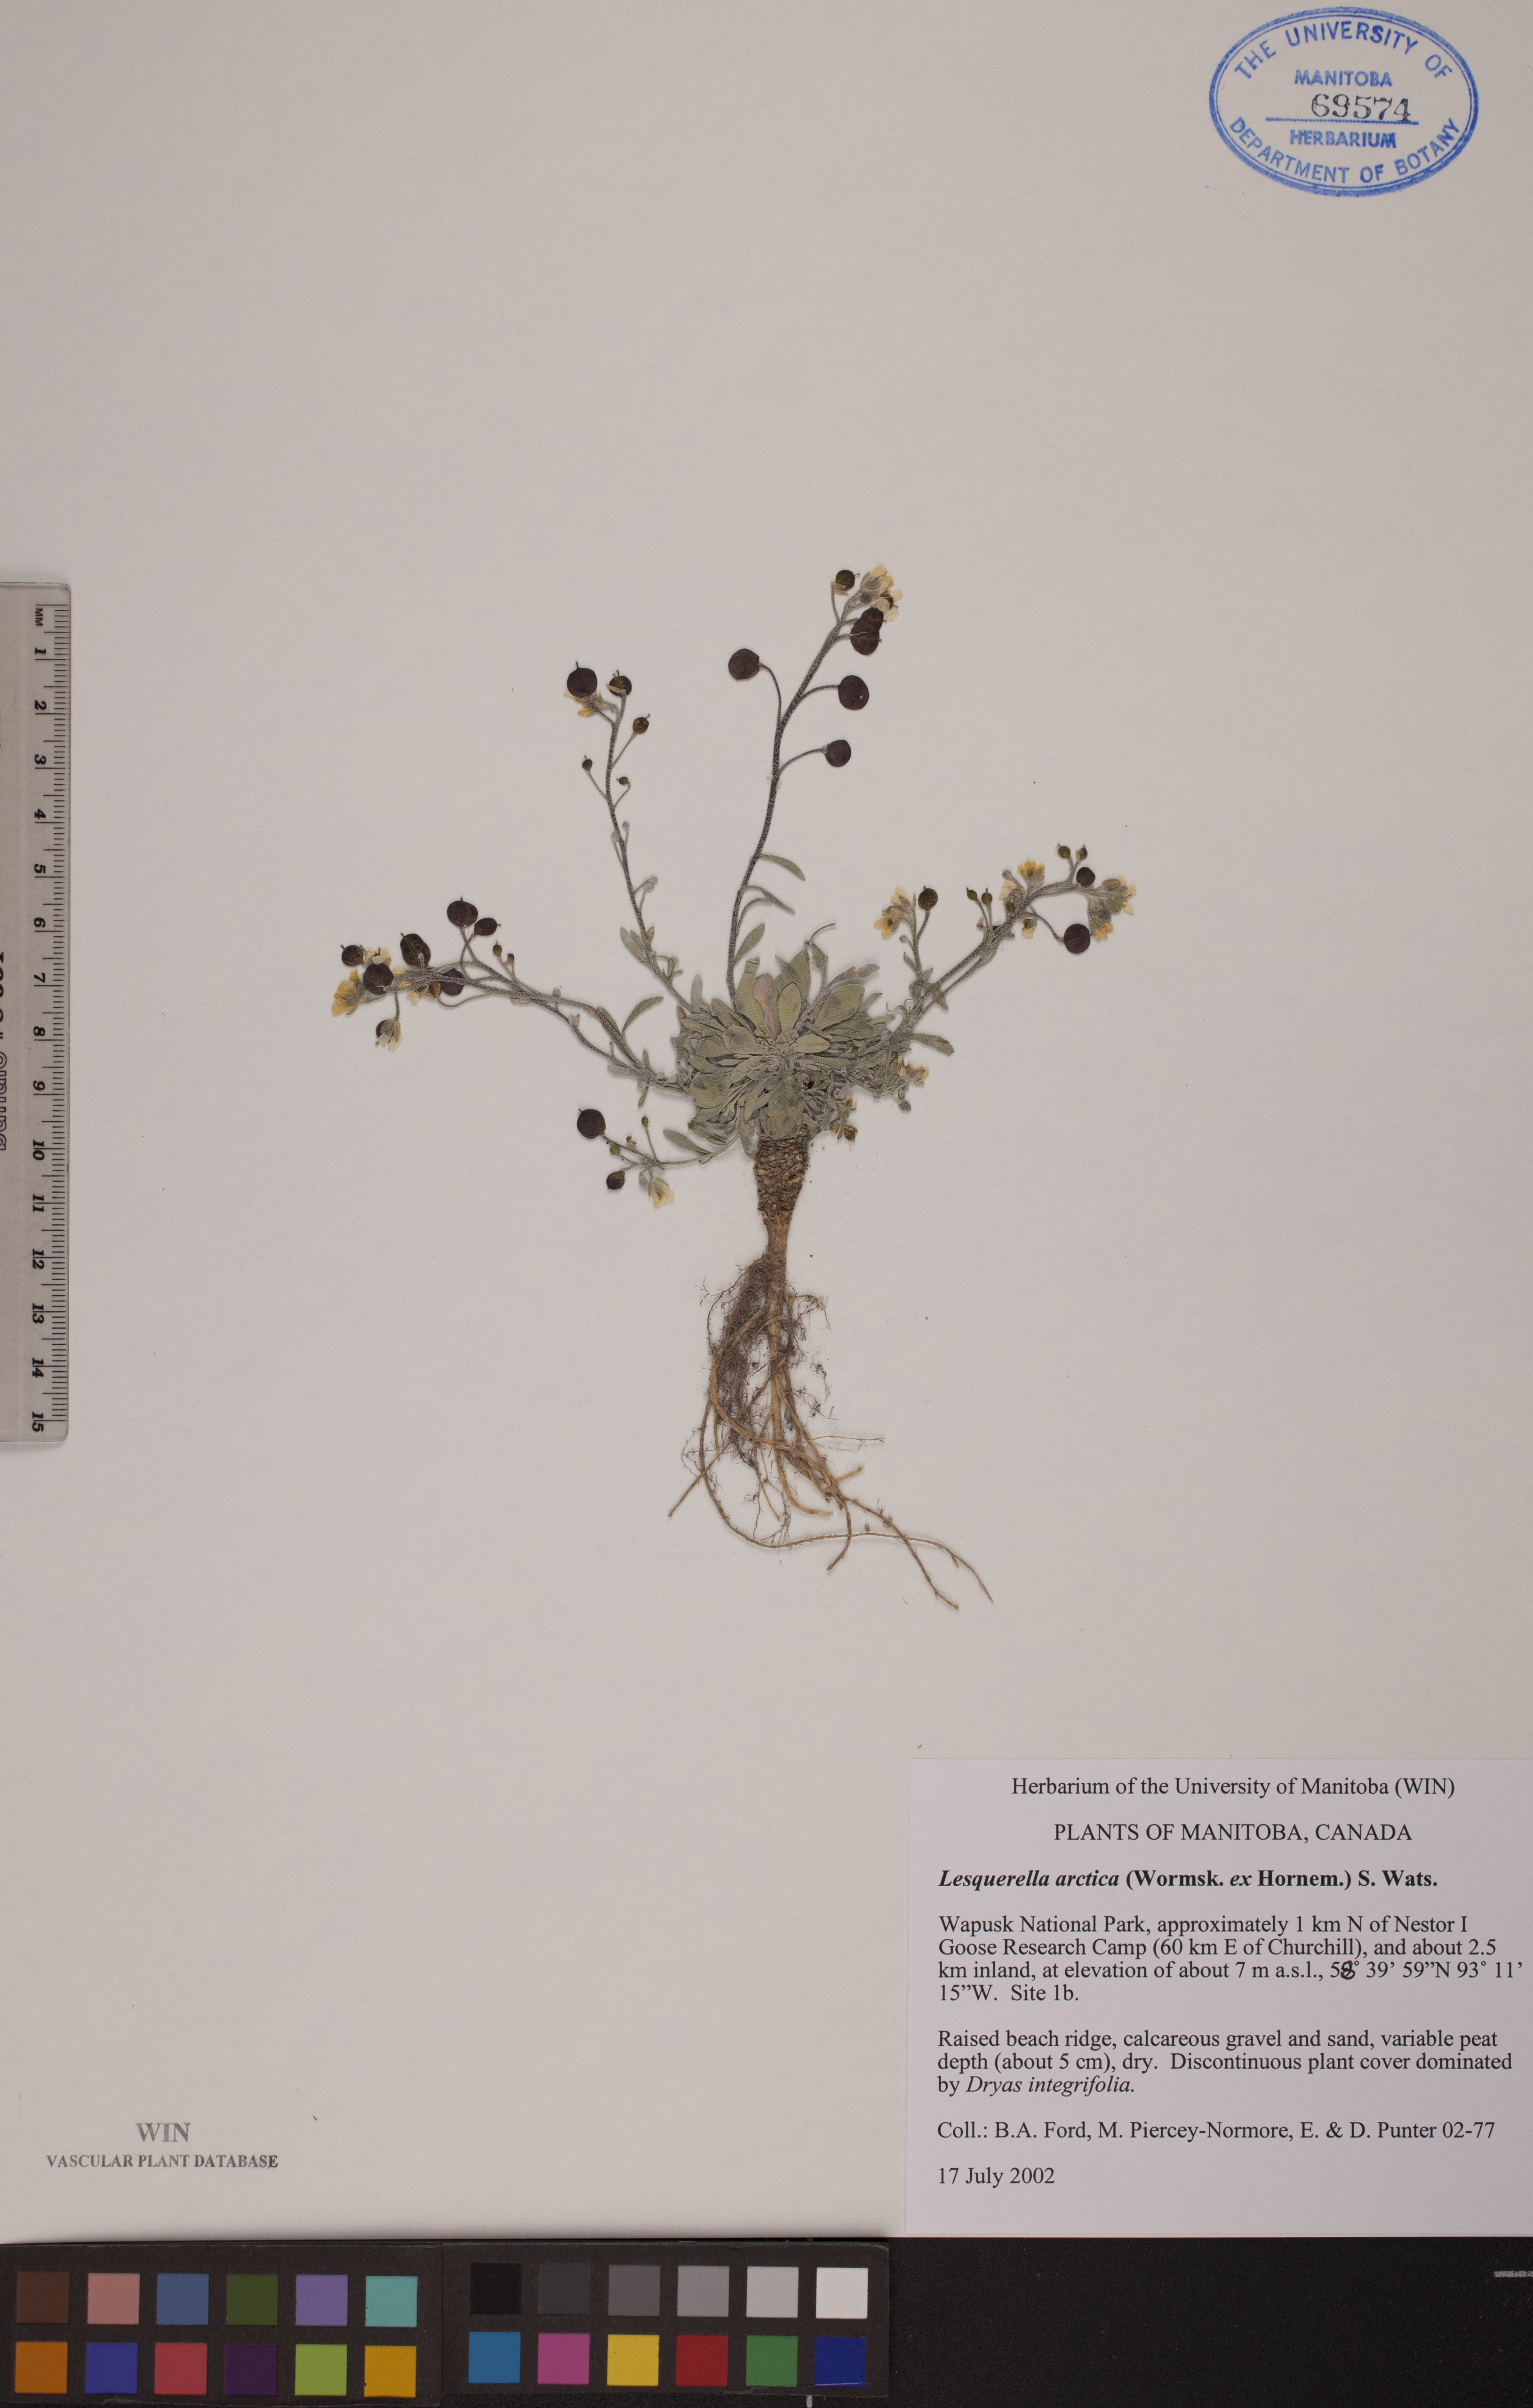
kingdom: Plantae
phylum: Tracheophyta
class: Magnoliopsida
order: Brassicales
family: Brassicaceae
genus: Physaria
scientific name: Physaria arctica
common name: Arctic bladderpod
